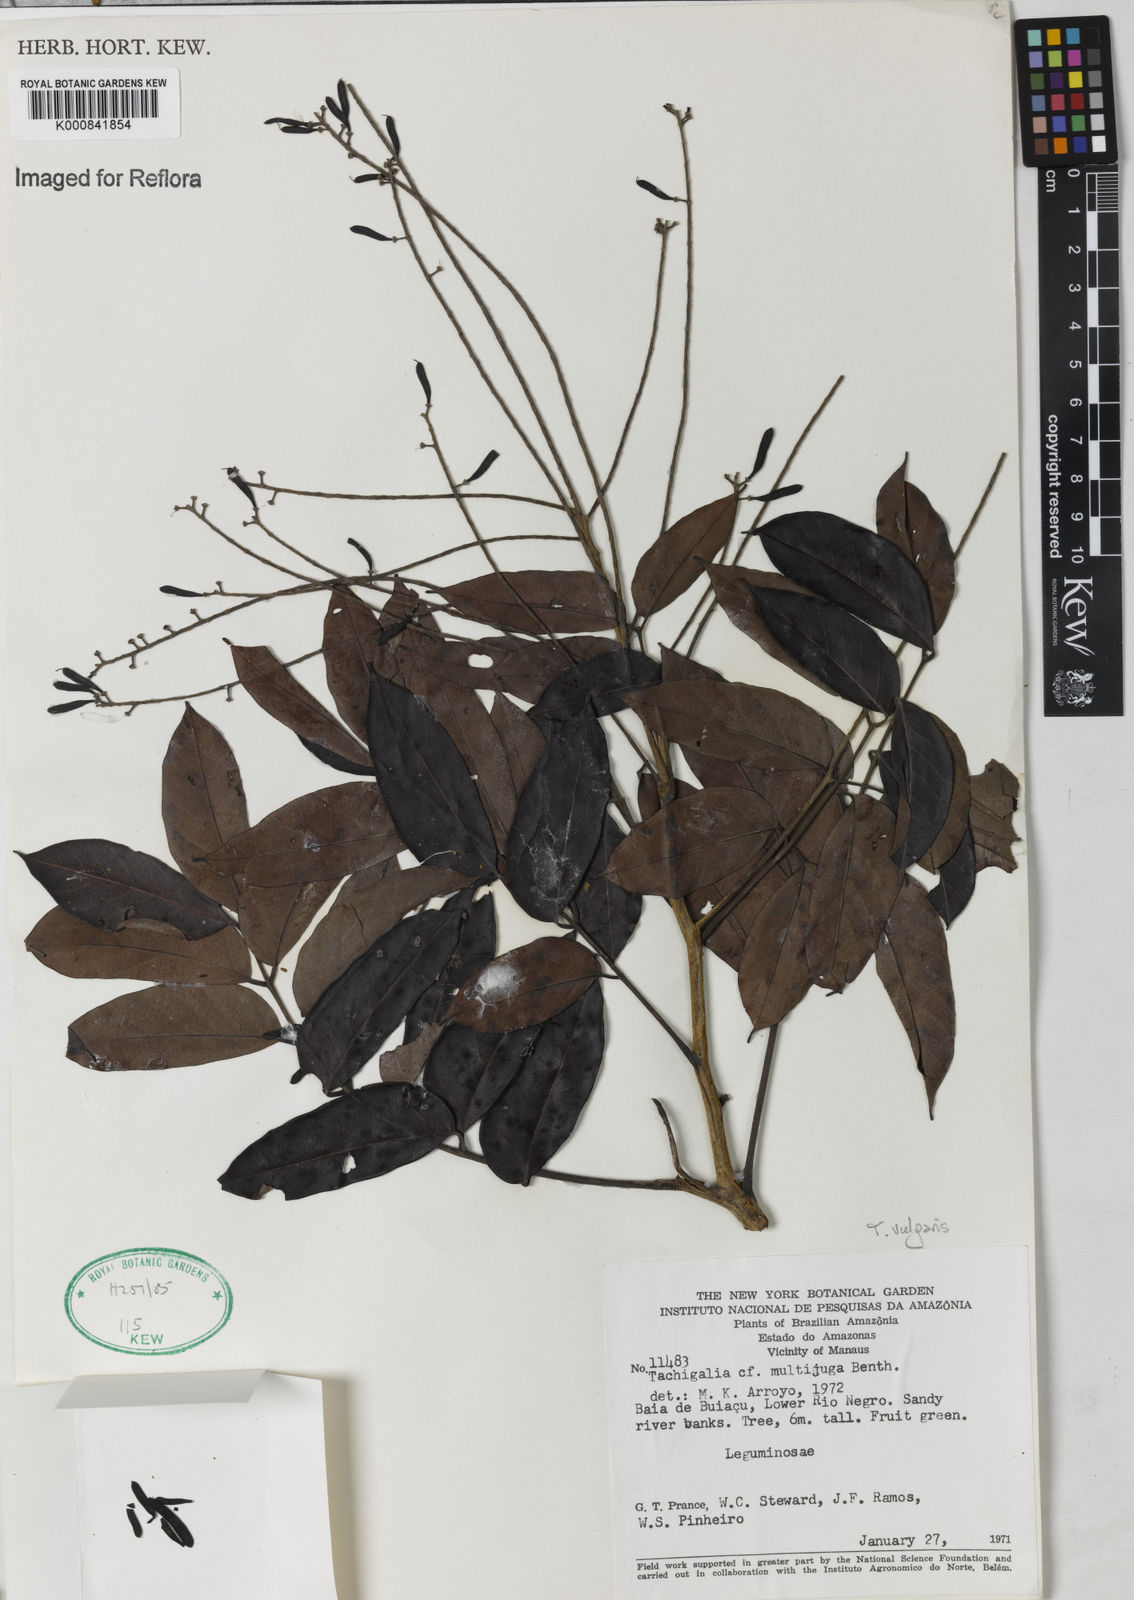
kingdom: Plantae
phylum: Tracheophyta
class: Magnoliopsida
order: Fabales
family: Fabaceae
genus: Tachigali
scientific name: Tachigali vulgaris
